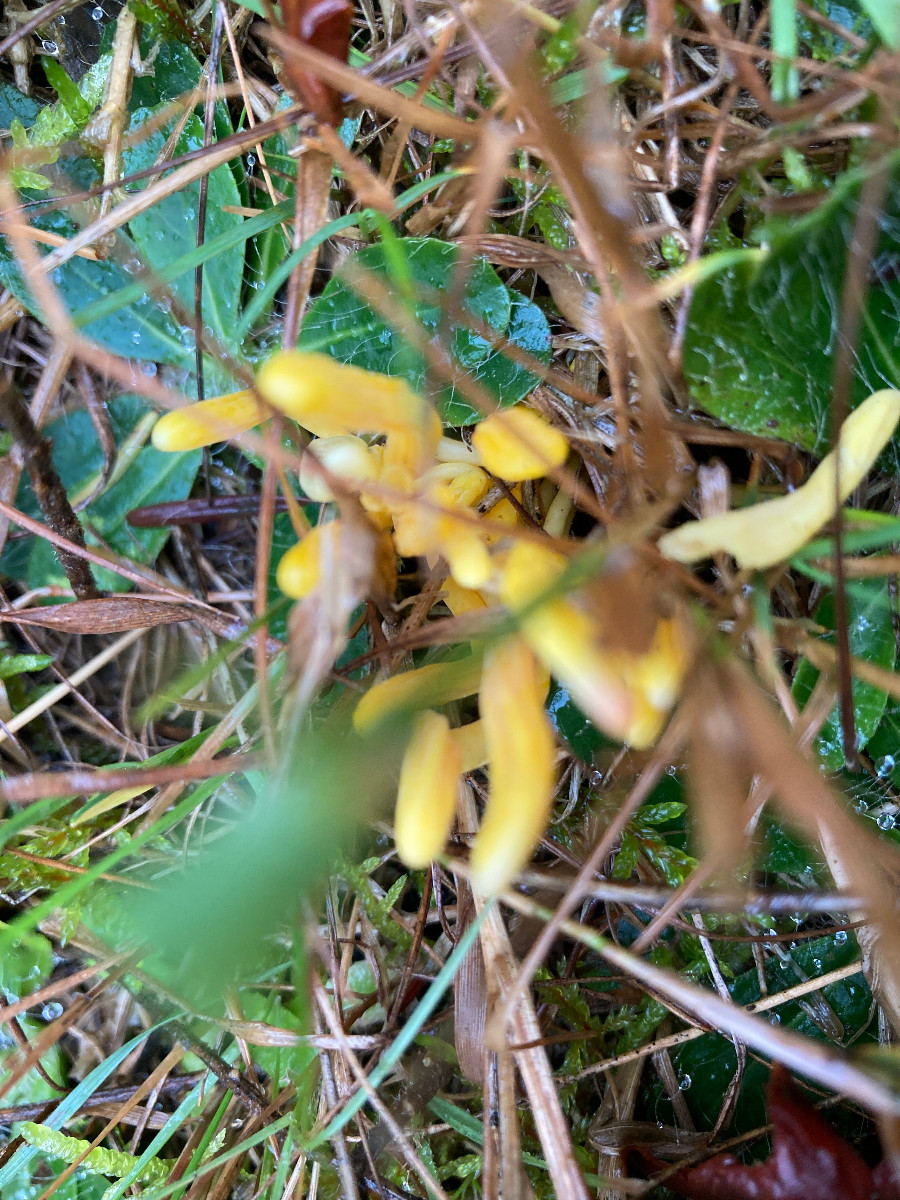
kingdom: Fungi
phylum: Basidiomycota
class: Agaricomycetes
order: Agaricales
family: Clavariaceae
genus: Clavulinopsis
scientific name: Clavulinopsis
